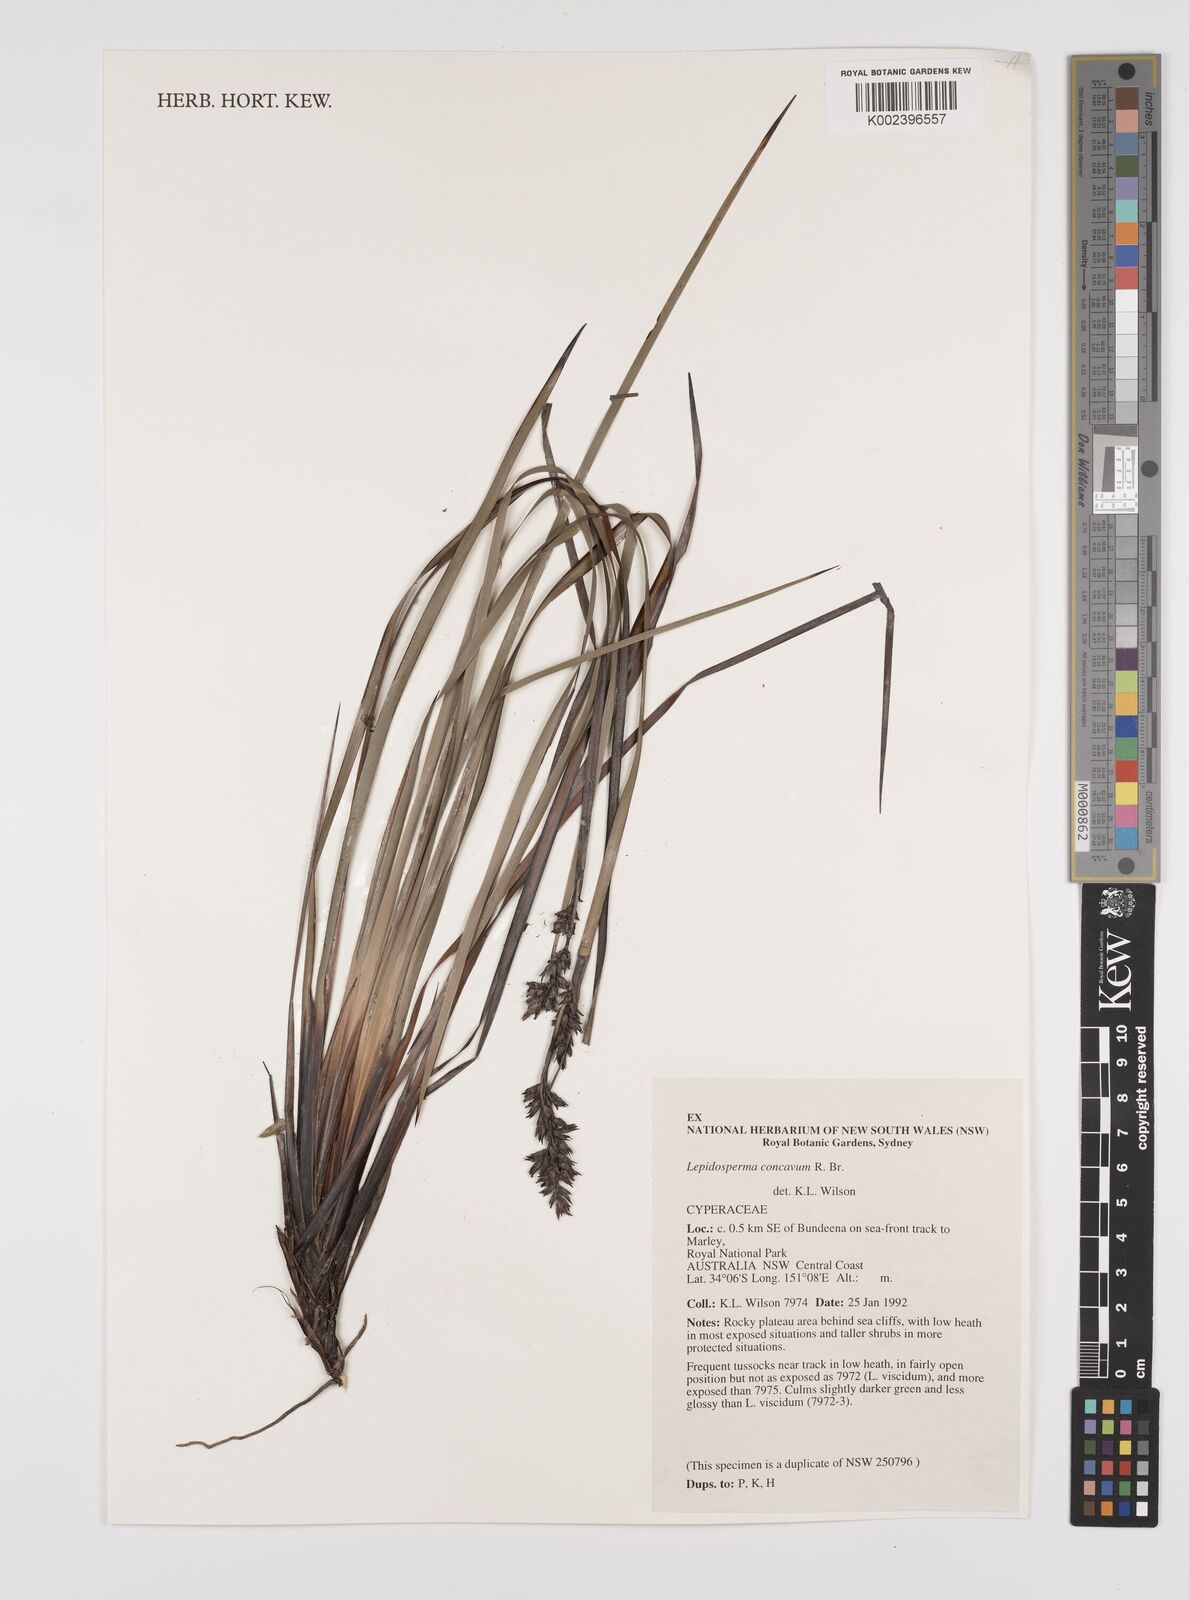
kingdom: Plantae
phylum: Tracheophyta
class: Liliopsida
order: Poales
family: Cyperaceae
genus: Lepidosperma
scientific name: Lepidosperma concavum
